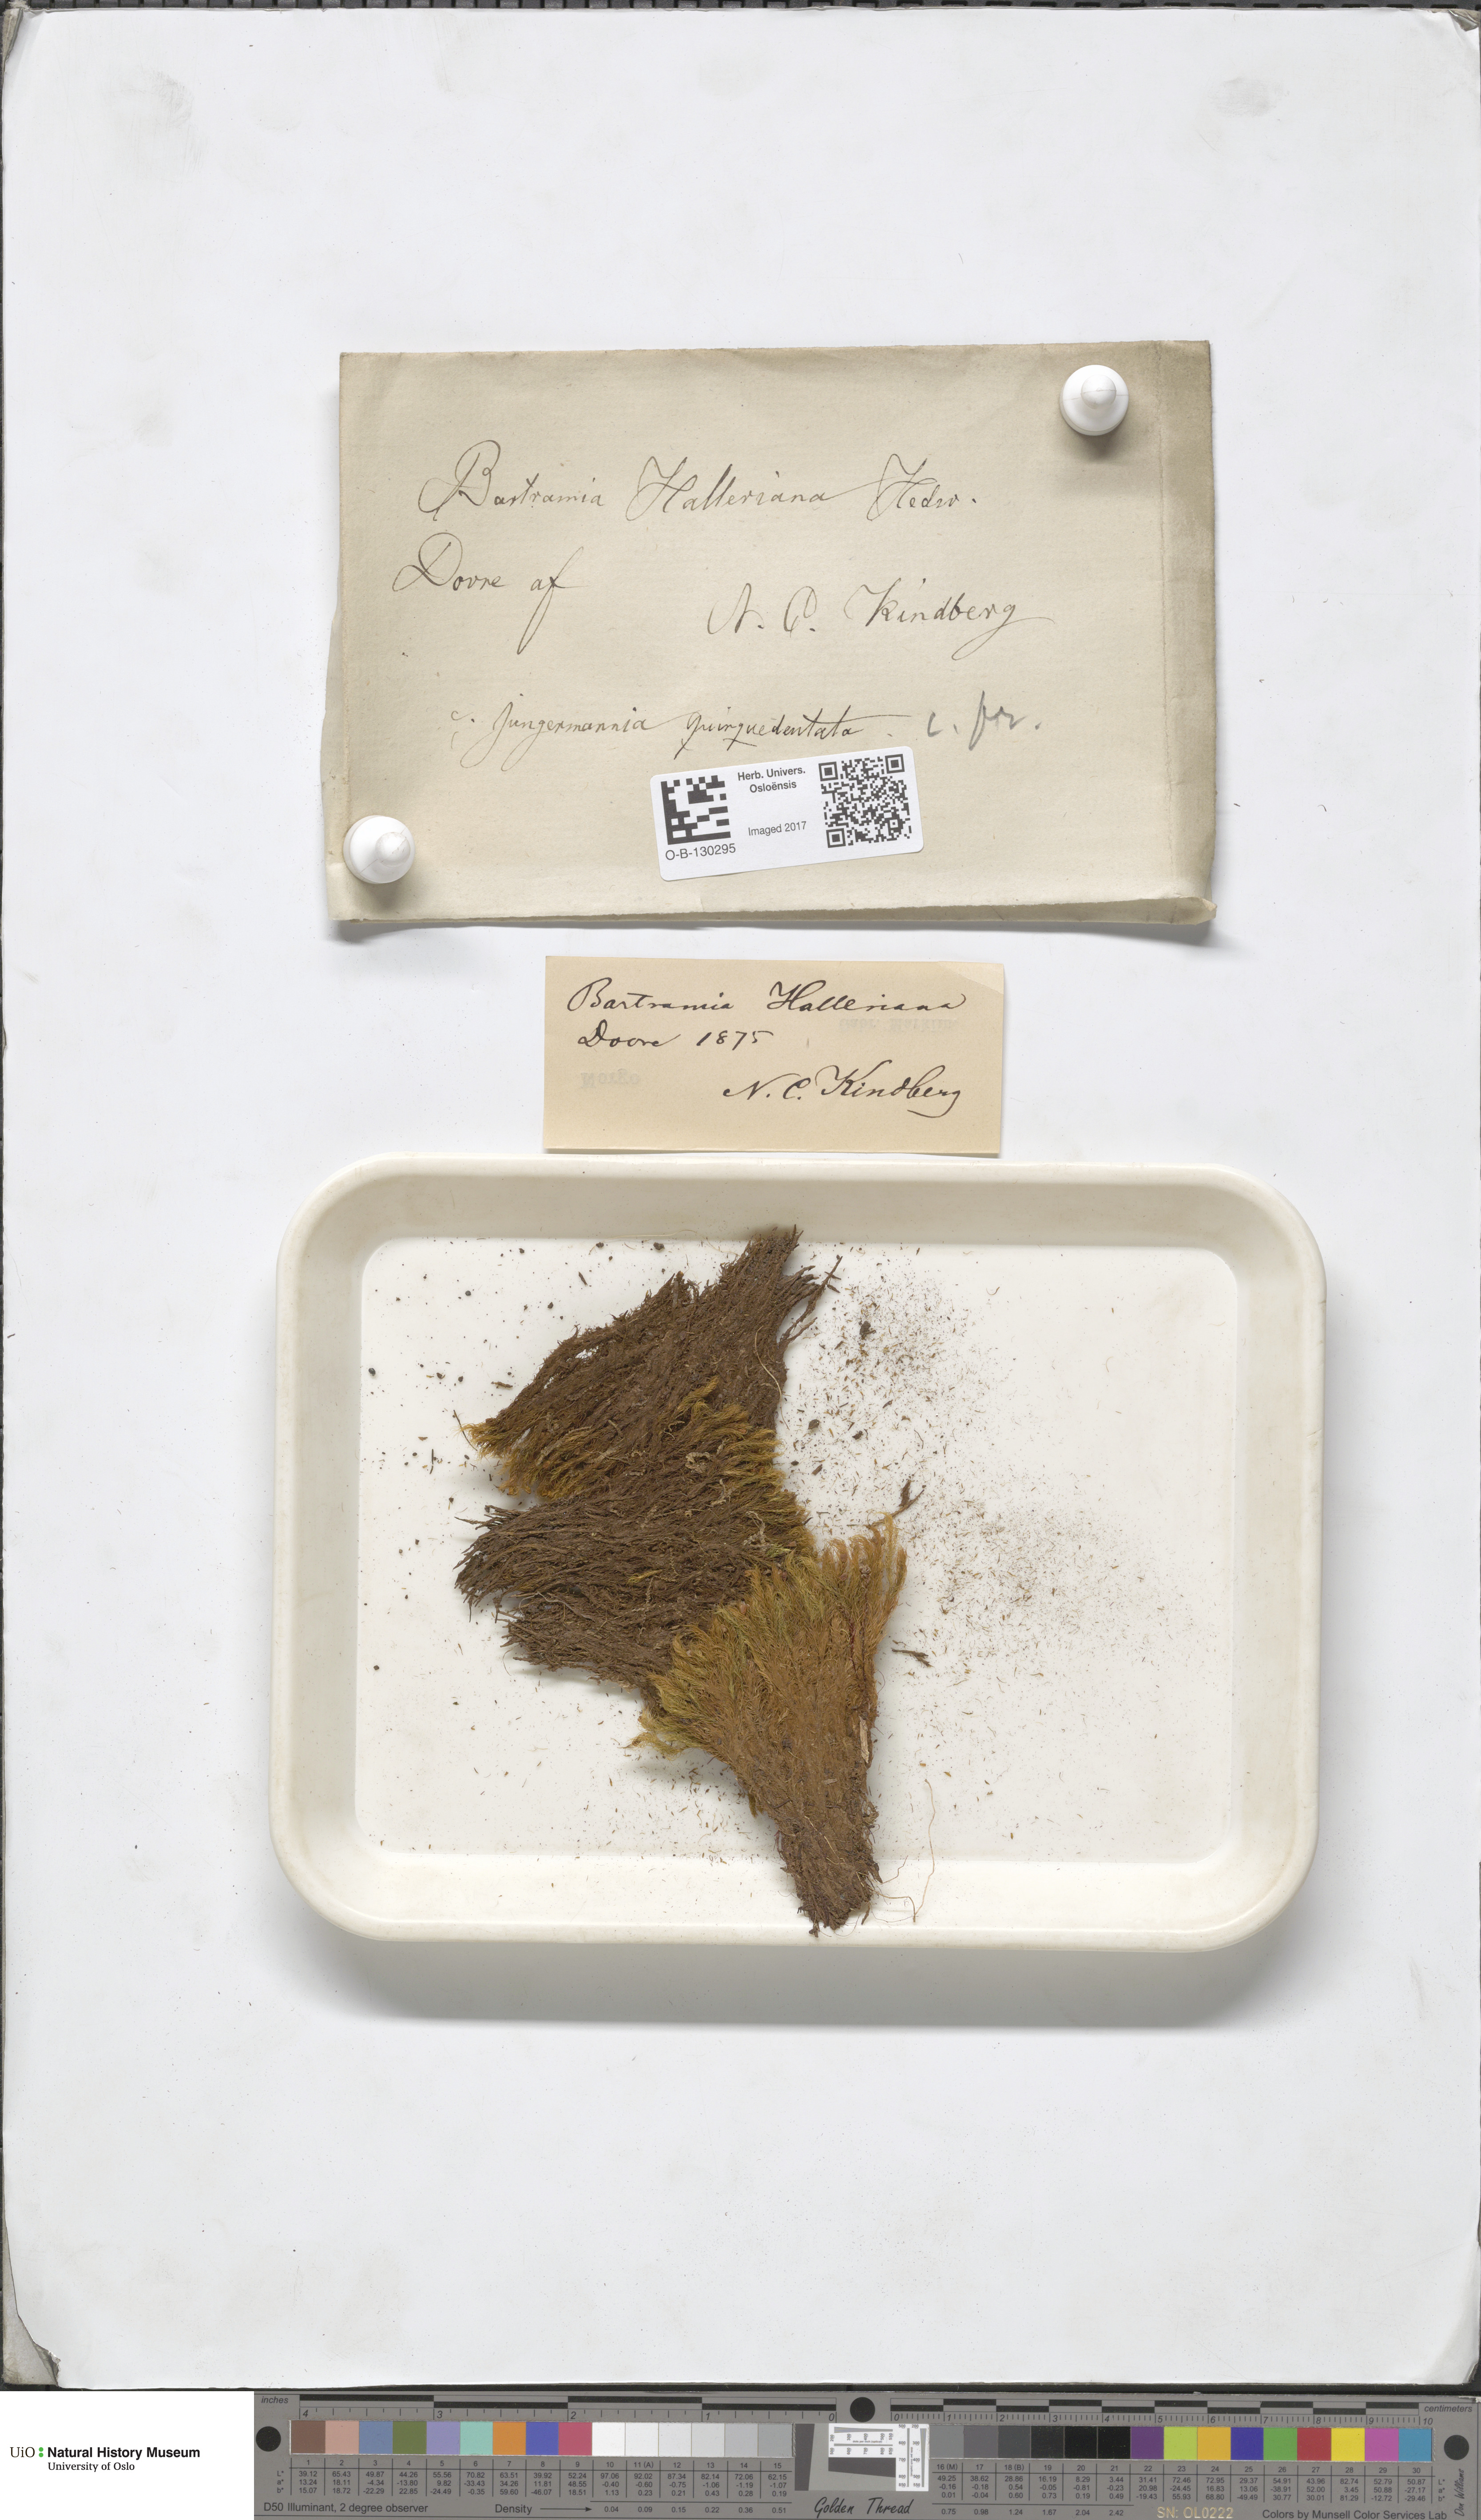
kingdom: Plantae
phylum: Bryophyta
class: Bryopsida
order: Bartramiales
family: Bartramiaceae
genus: Bartramia
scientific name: Bartramia halleriana
